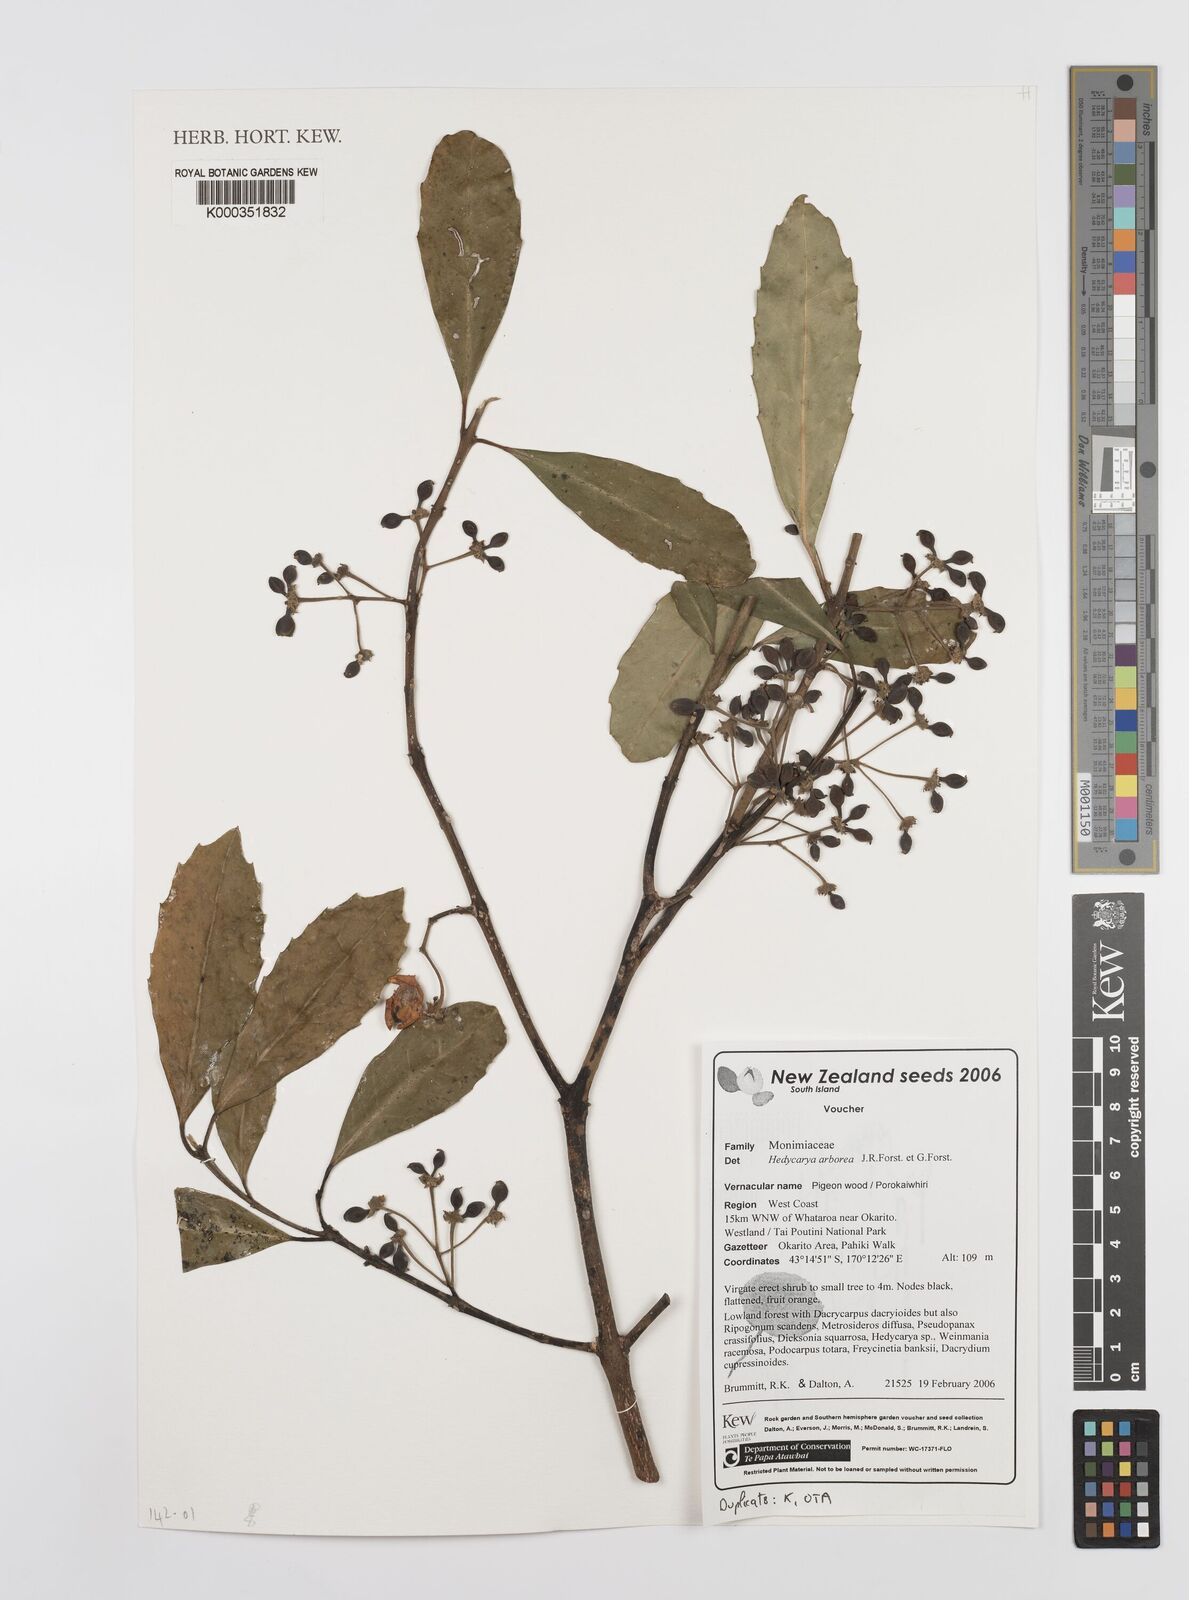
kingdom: Plantae
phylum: Tracheophyta
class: Magnoliopsida
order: Laurales
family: Monimiaceae
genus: Hedycarya
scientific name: Hedycarya arborea
